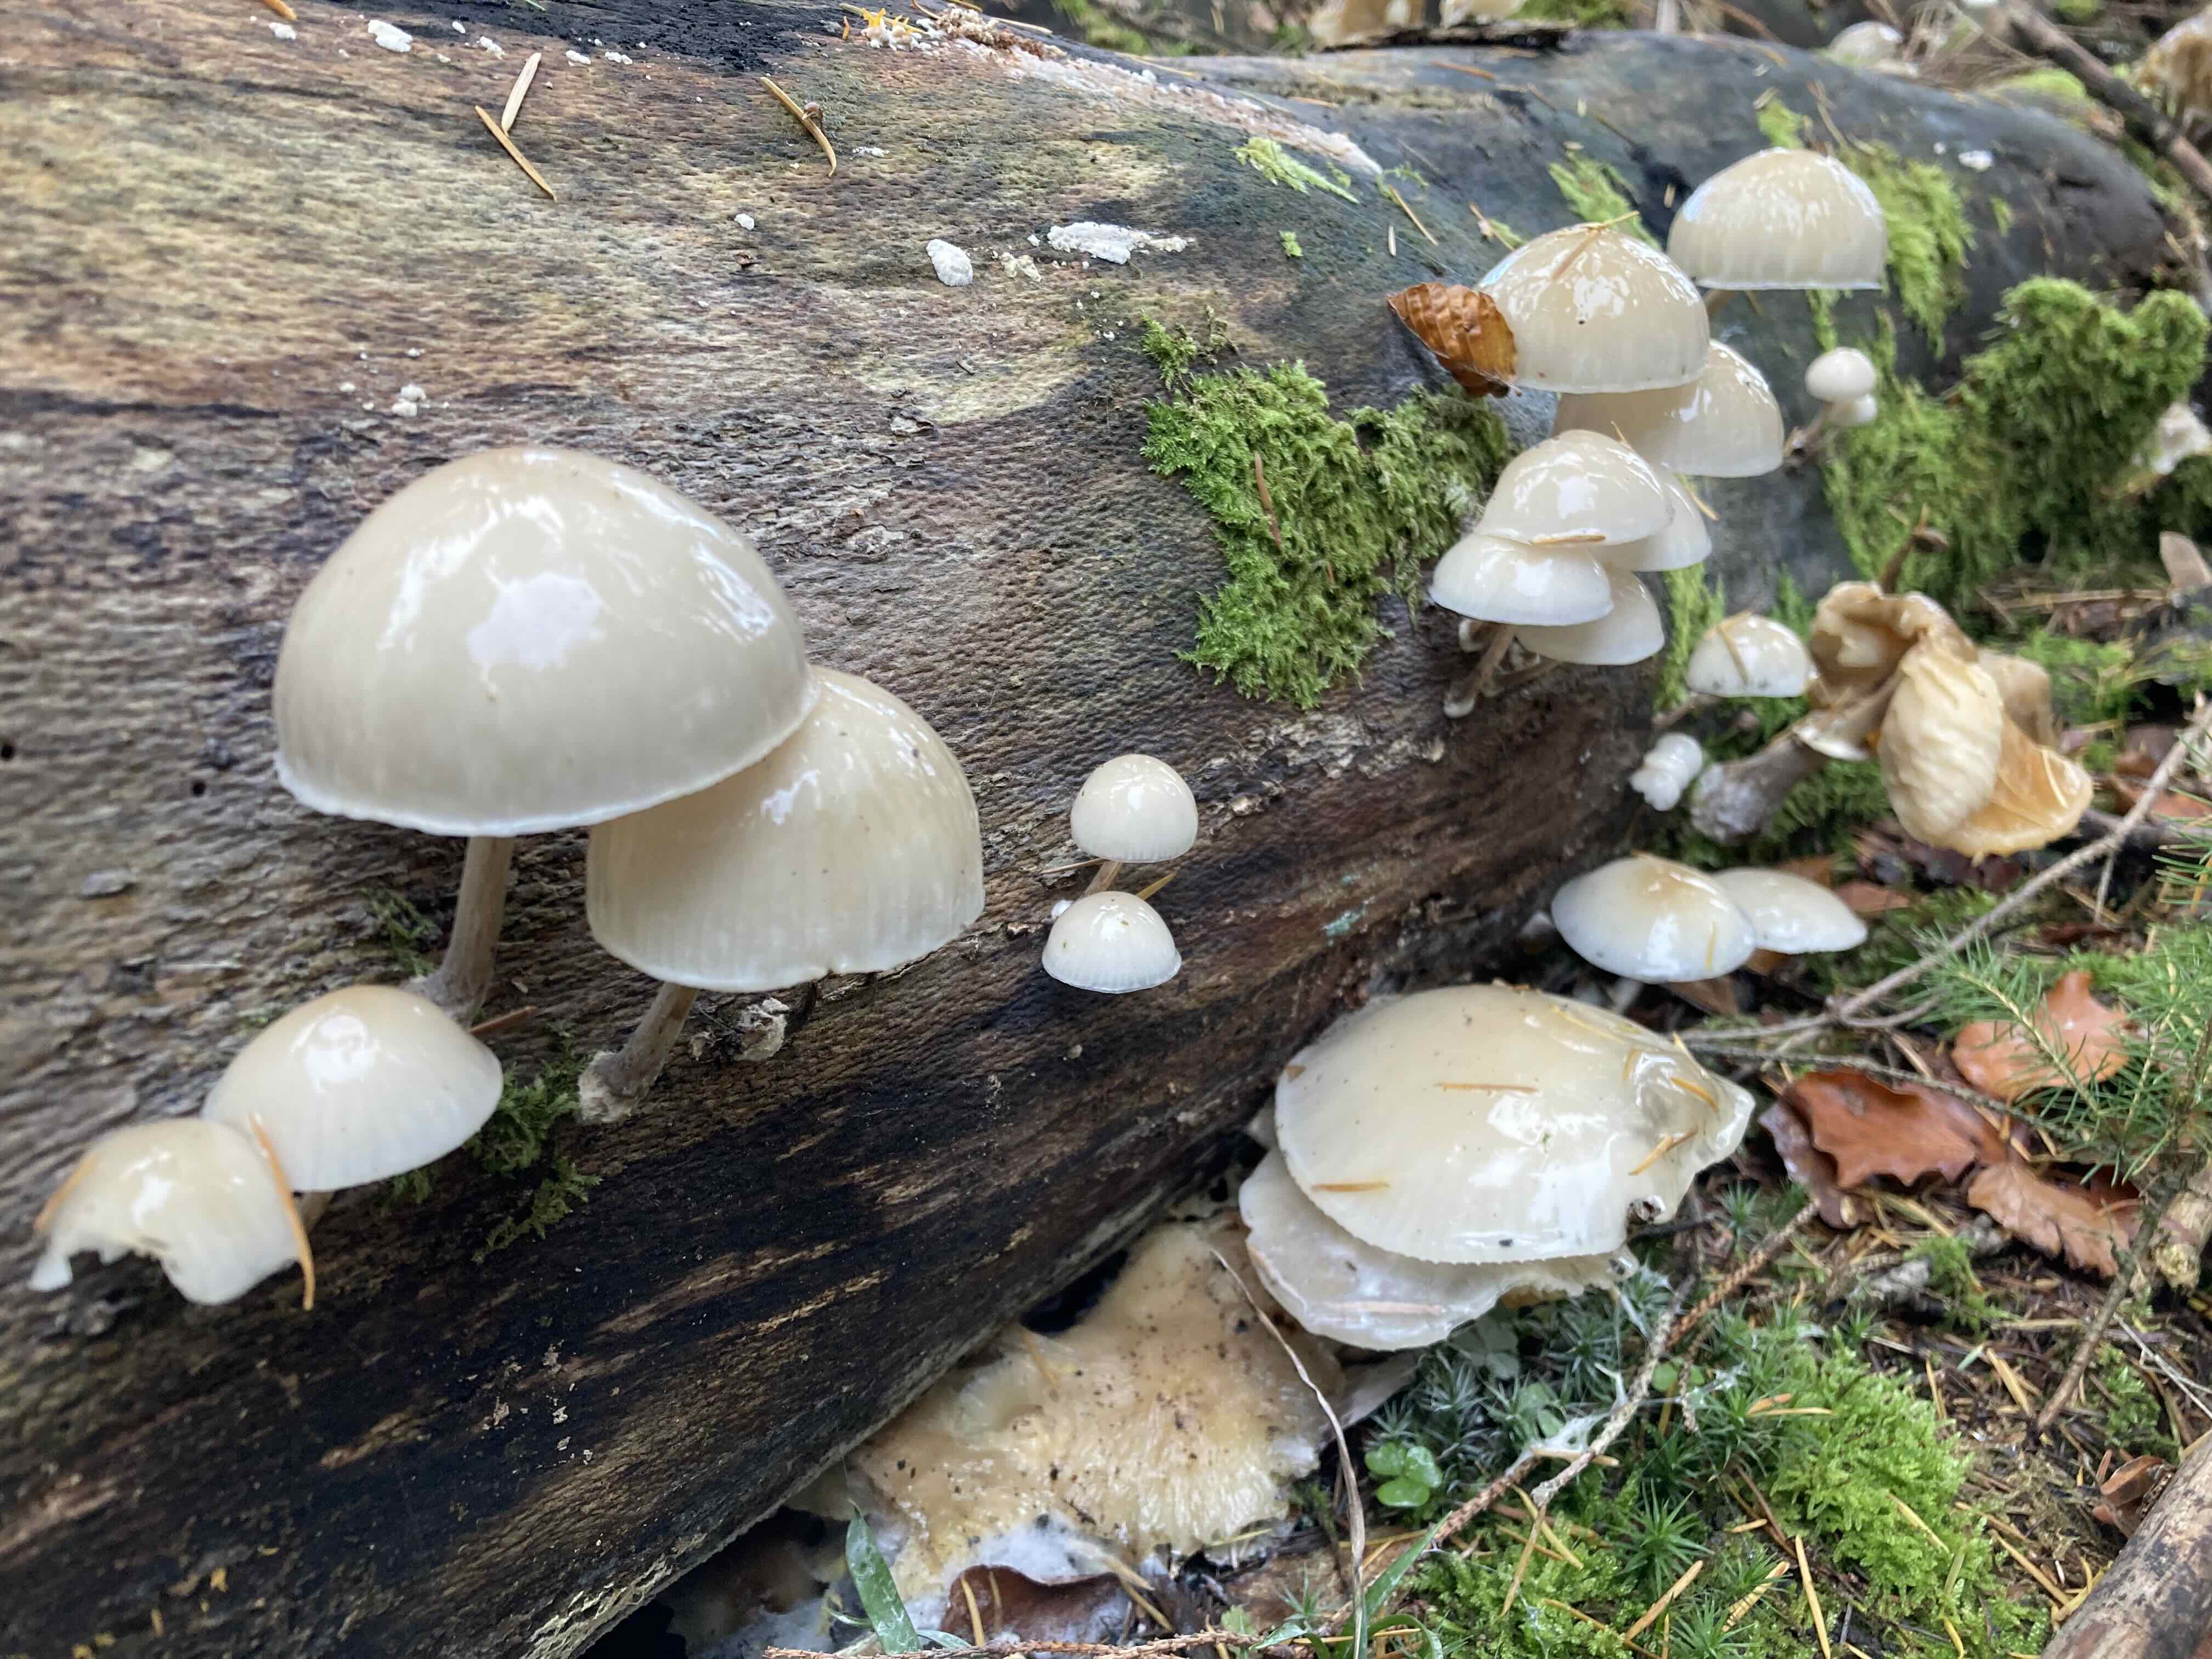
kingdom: Fungi
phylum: Basidiomycota
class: Agaricomycetes
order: Agaricales
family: Physalacriaceae
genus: Mucidula
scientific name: Mucidula mucida
